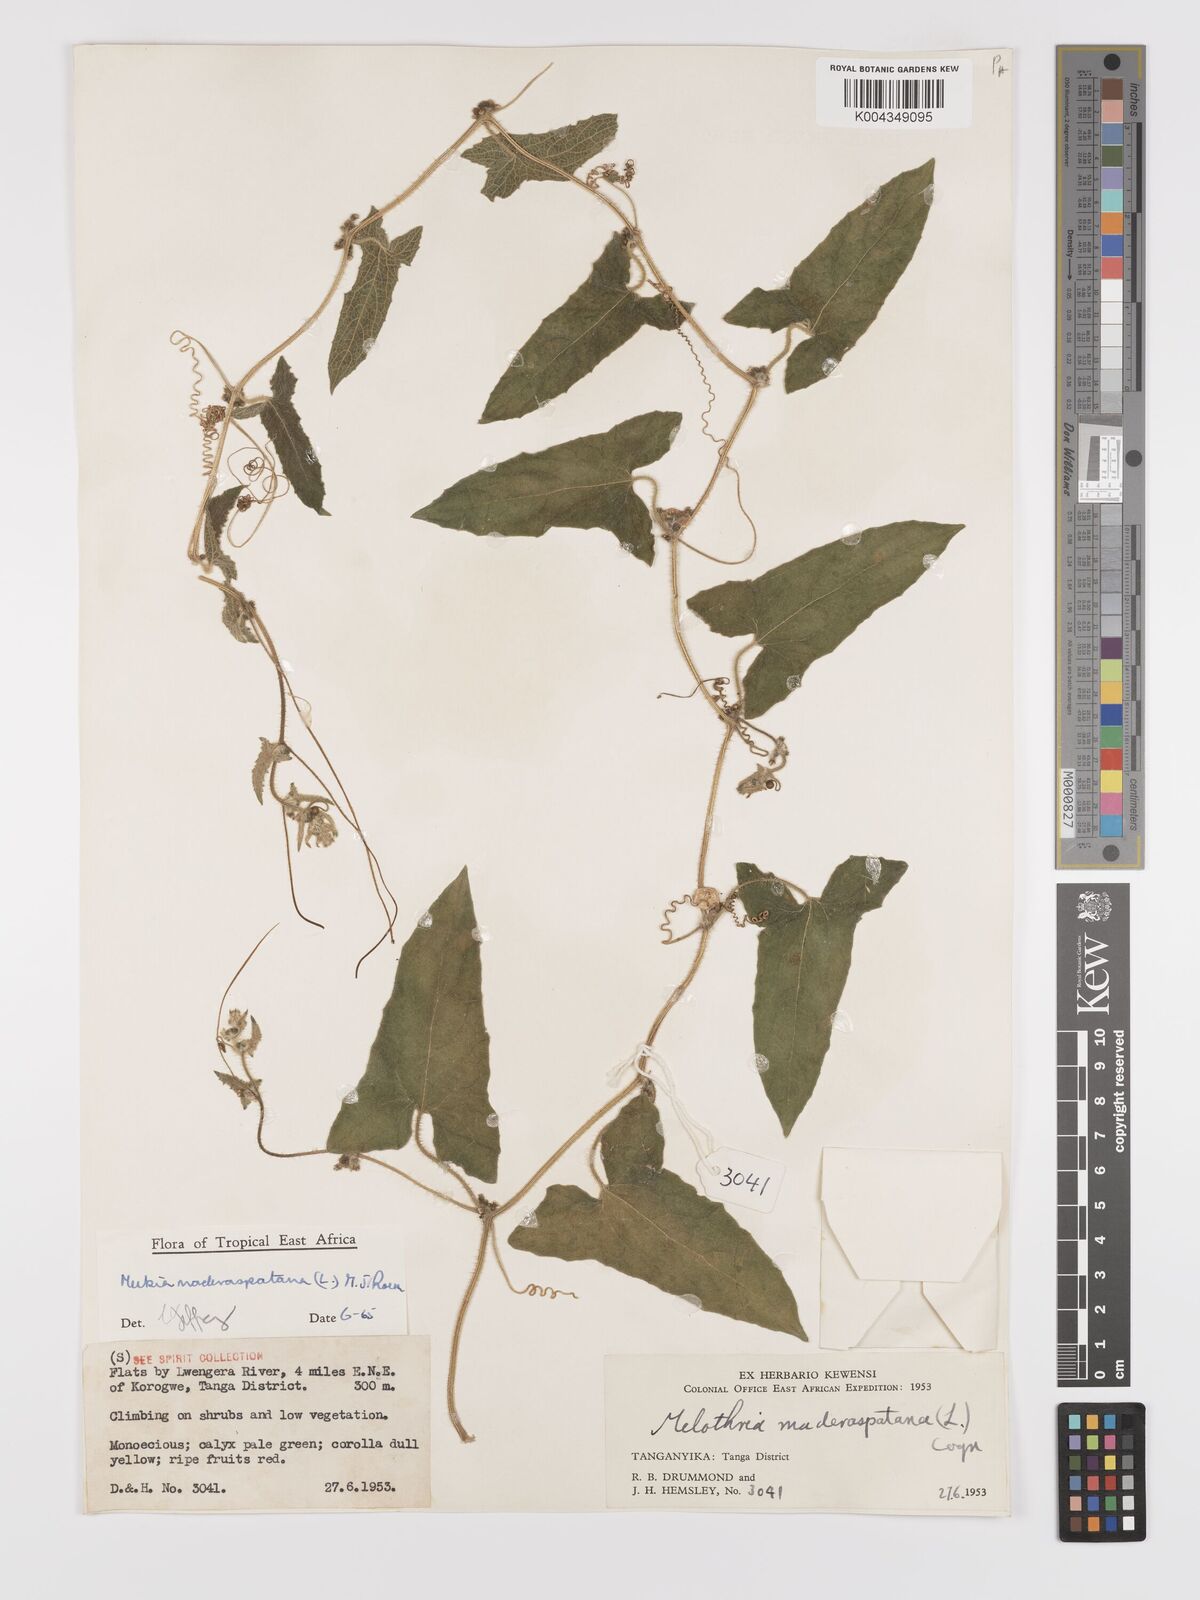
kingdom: Plantae
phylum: Tracheophyta
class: Magnoliopsida
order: Cucurbitales
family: Cucurbitaceae
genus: Cucumis
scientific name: Cucumis maderaspatanus
